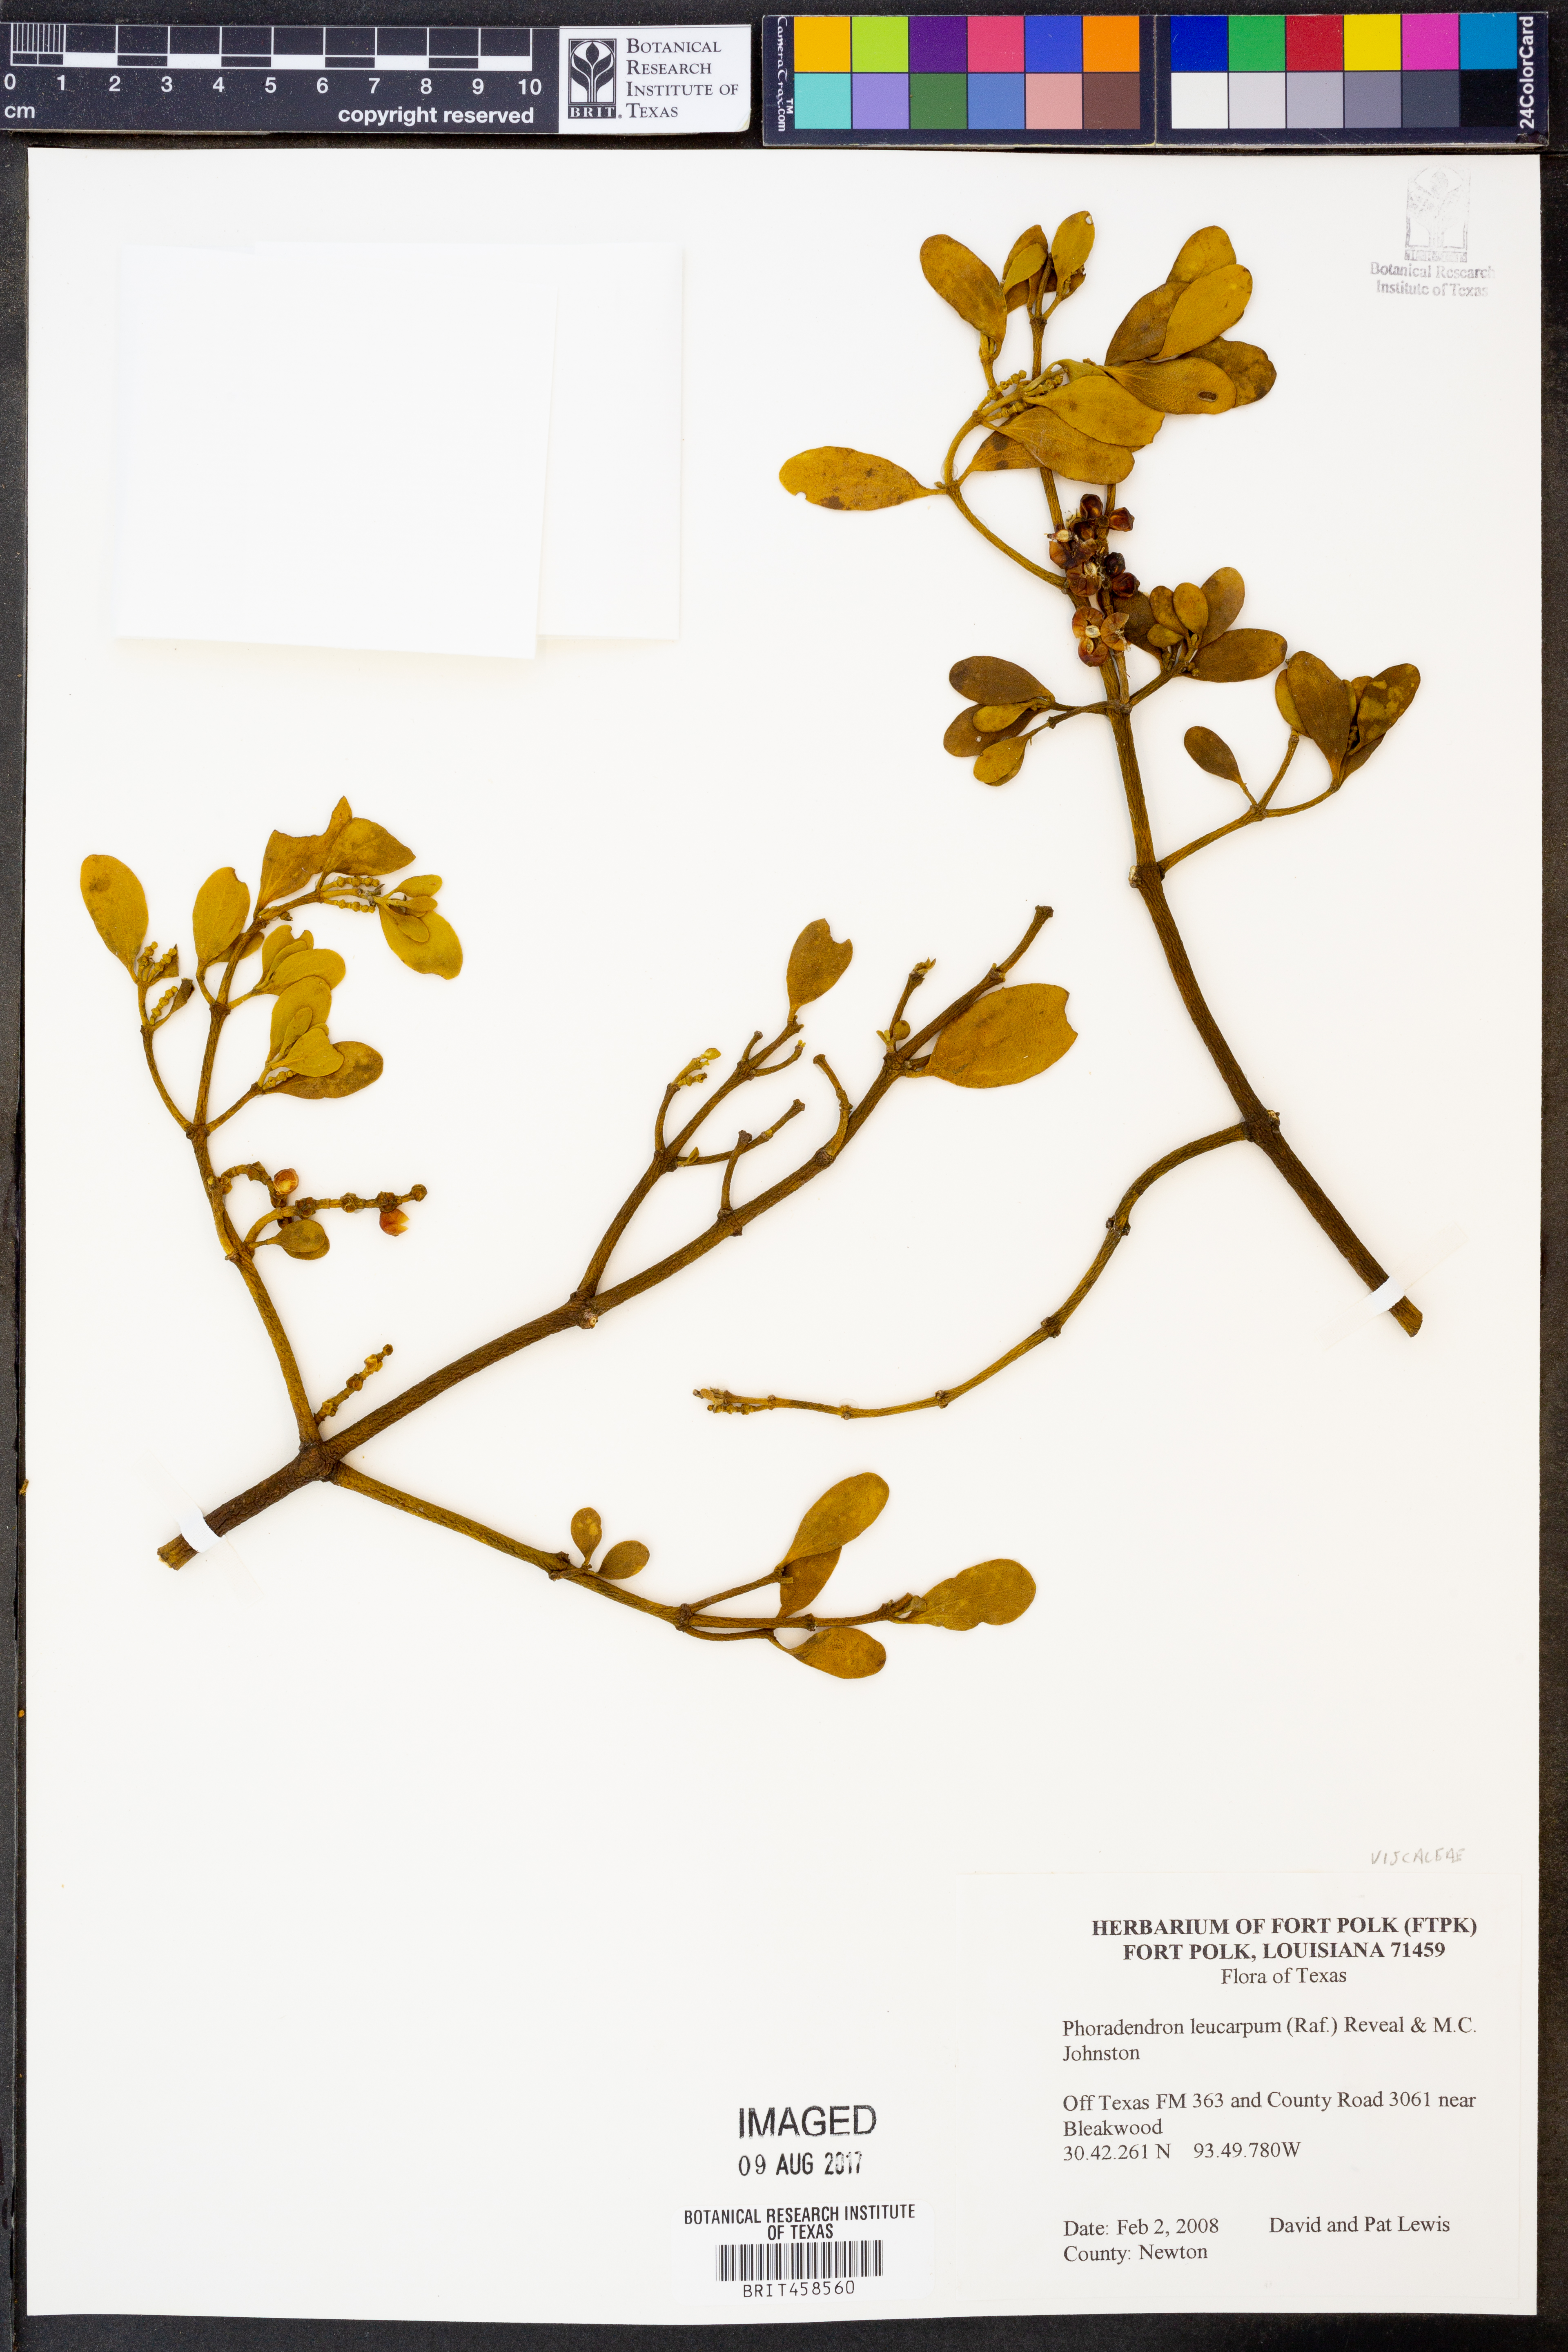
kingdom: Plantae
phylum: Tracheophyta
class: Magnoliopsida
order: Santalales
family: Viscaceae
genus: Phoradendron
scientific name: Phoradendron leucarpum
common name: Pacific mistletoe
